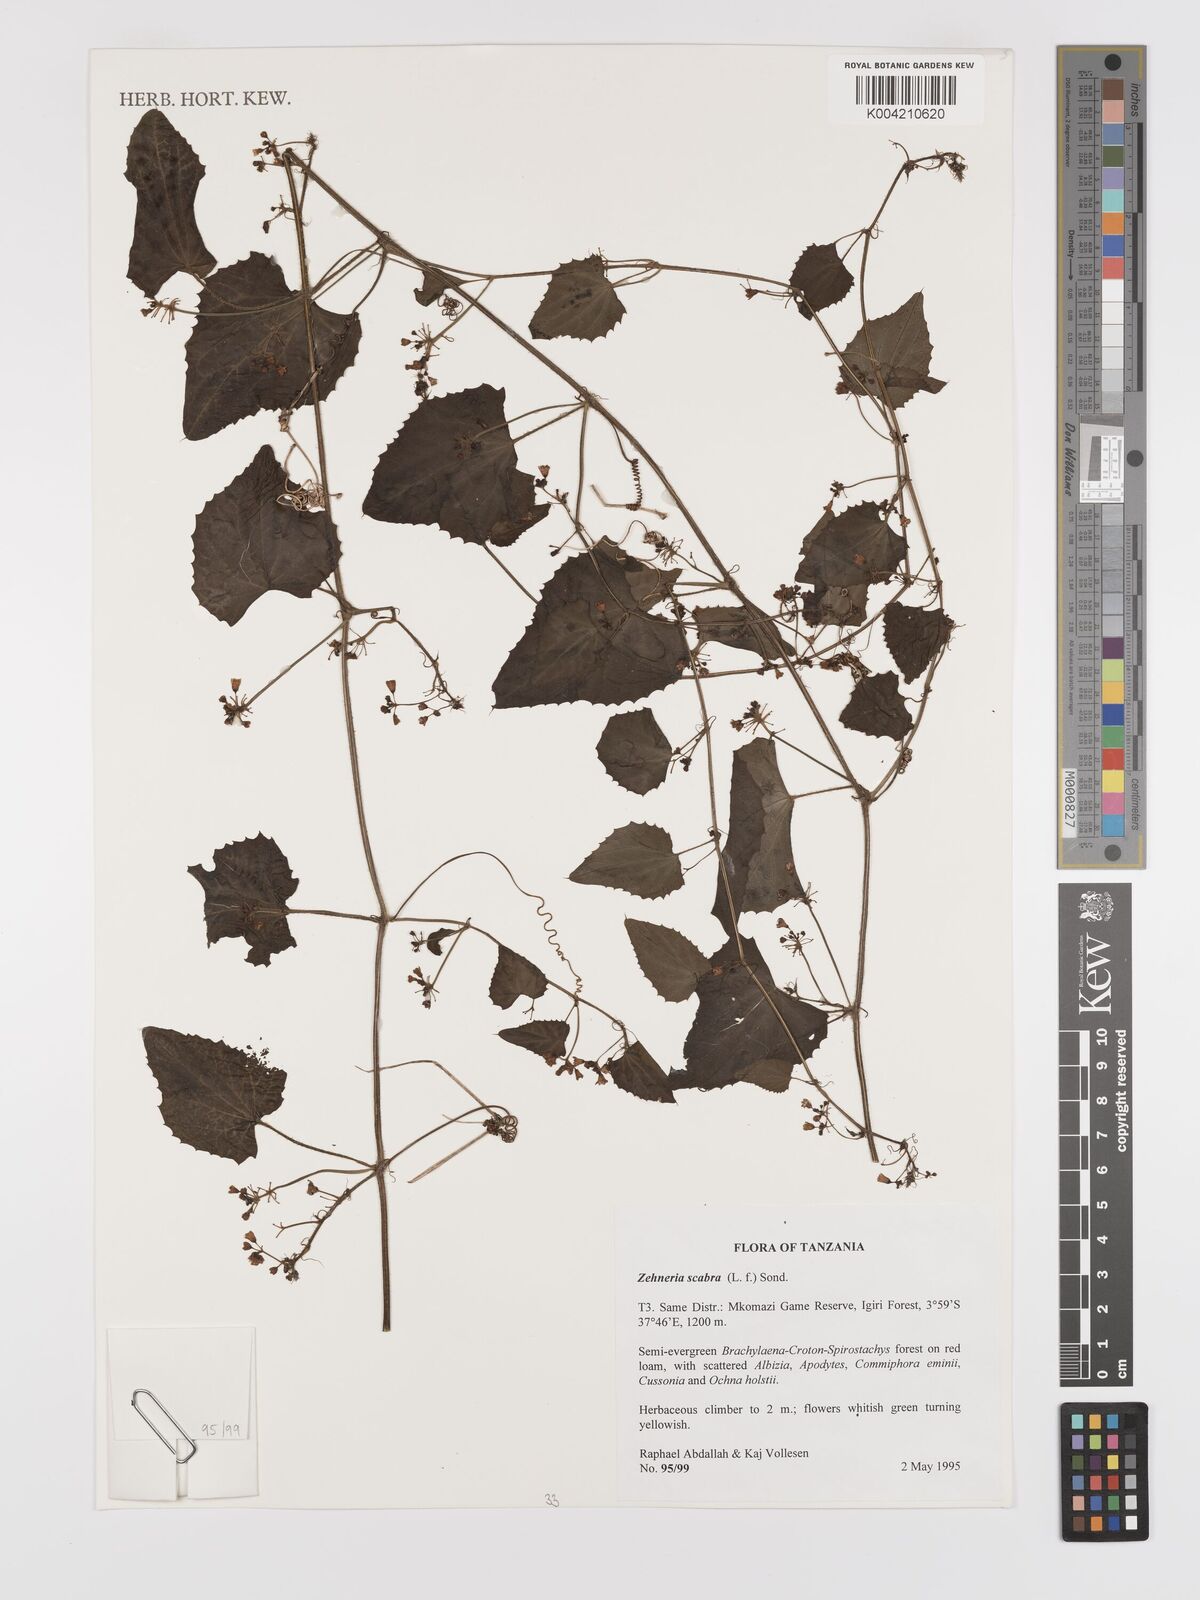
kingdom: Plantae
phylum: Tracheophyta
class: Magnoliopsida
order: Cucurbitales
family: Cucurbitaceae
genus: Zehneria
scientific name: Zehneria scabra
